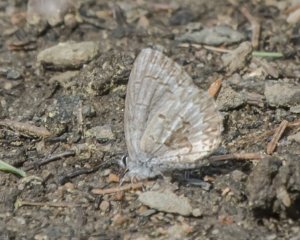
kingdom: Animalia
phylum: Arthropoda
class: Insecta
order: Lepidoptera
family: Lycaenidae
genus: Celastrina
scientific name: Celastrina lucia
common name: Northern Spring Azure
